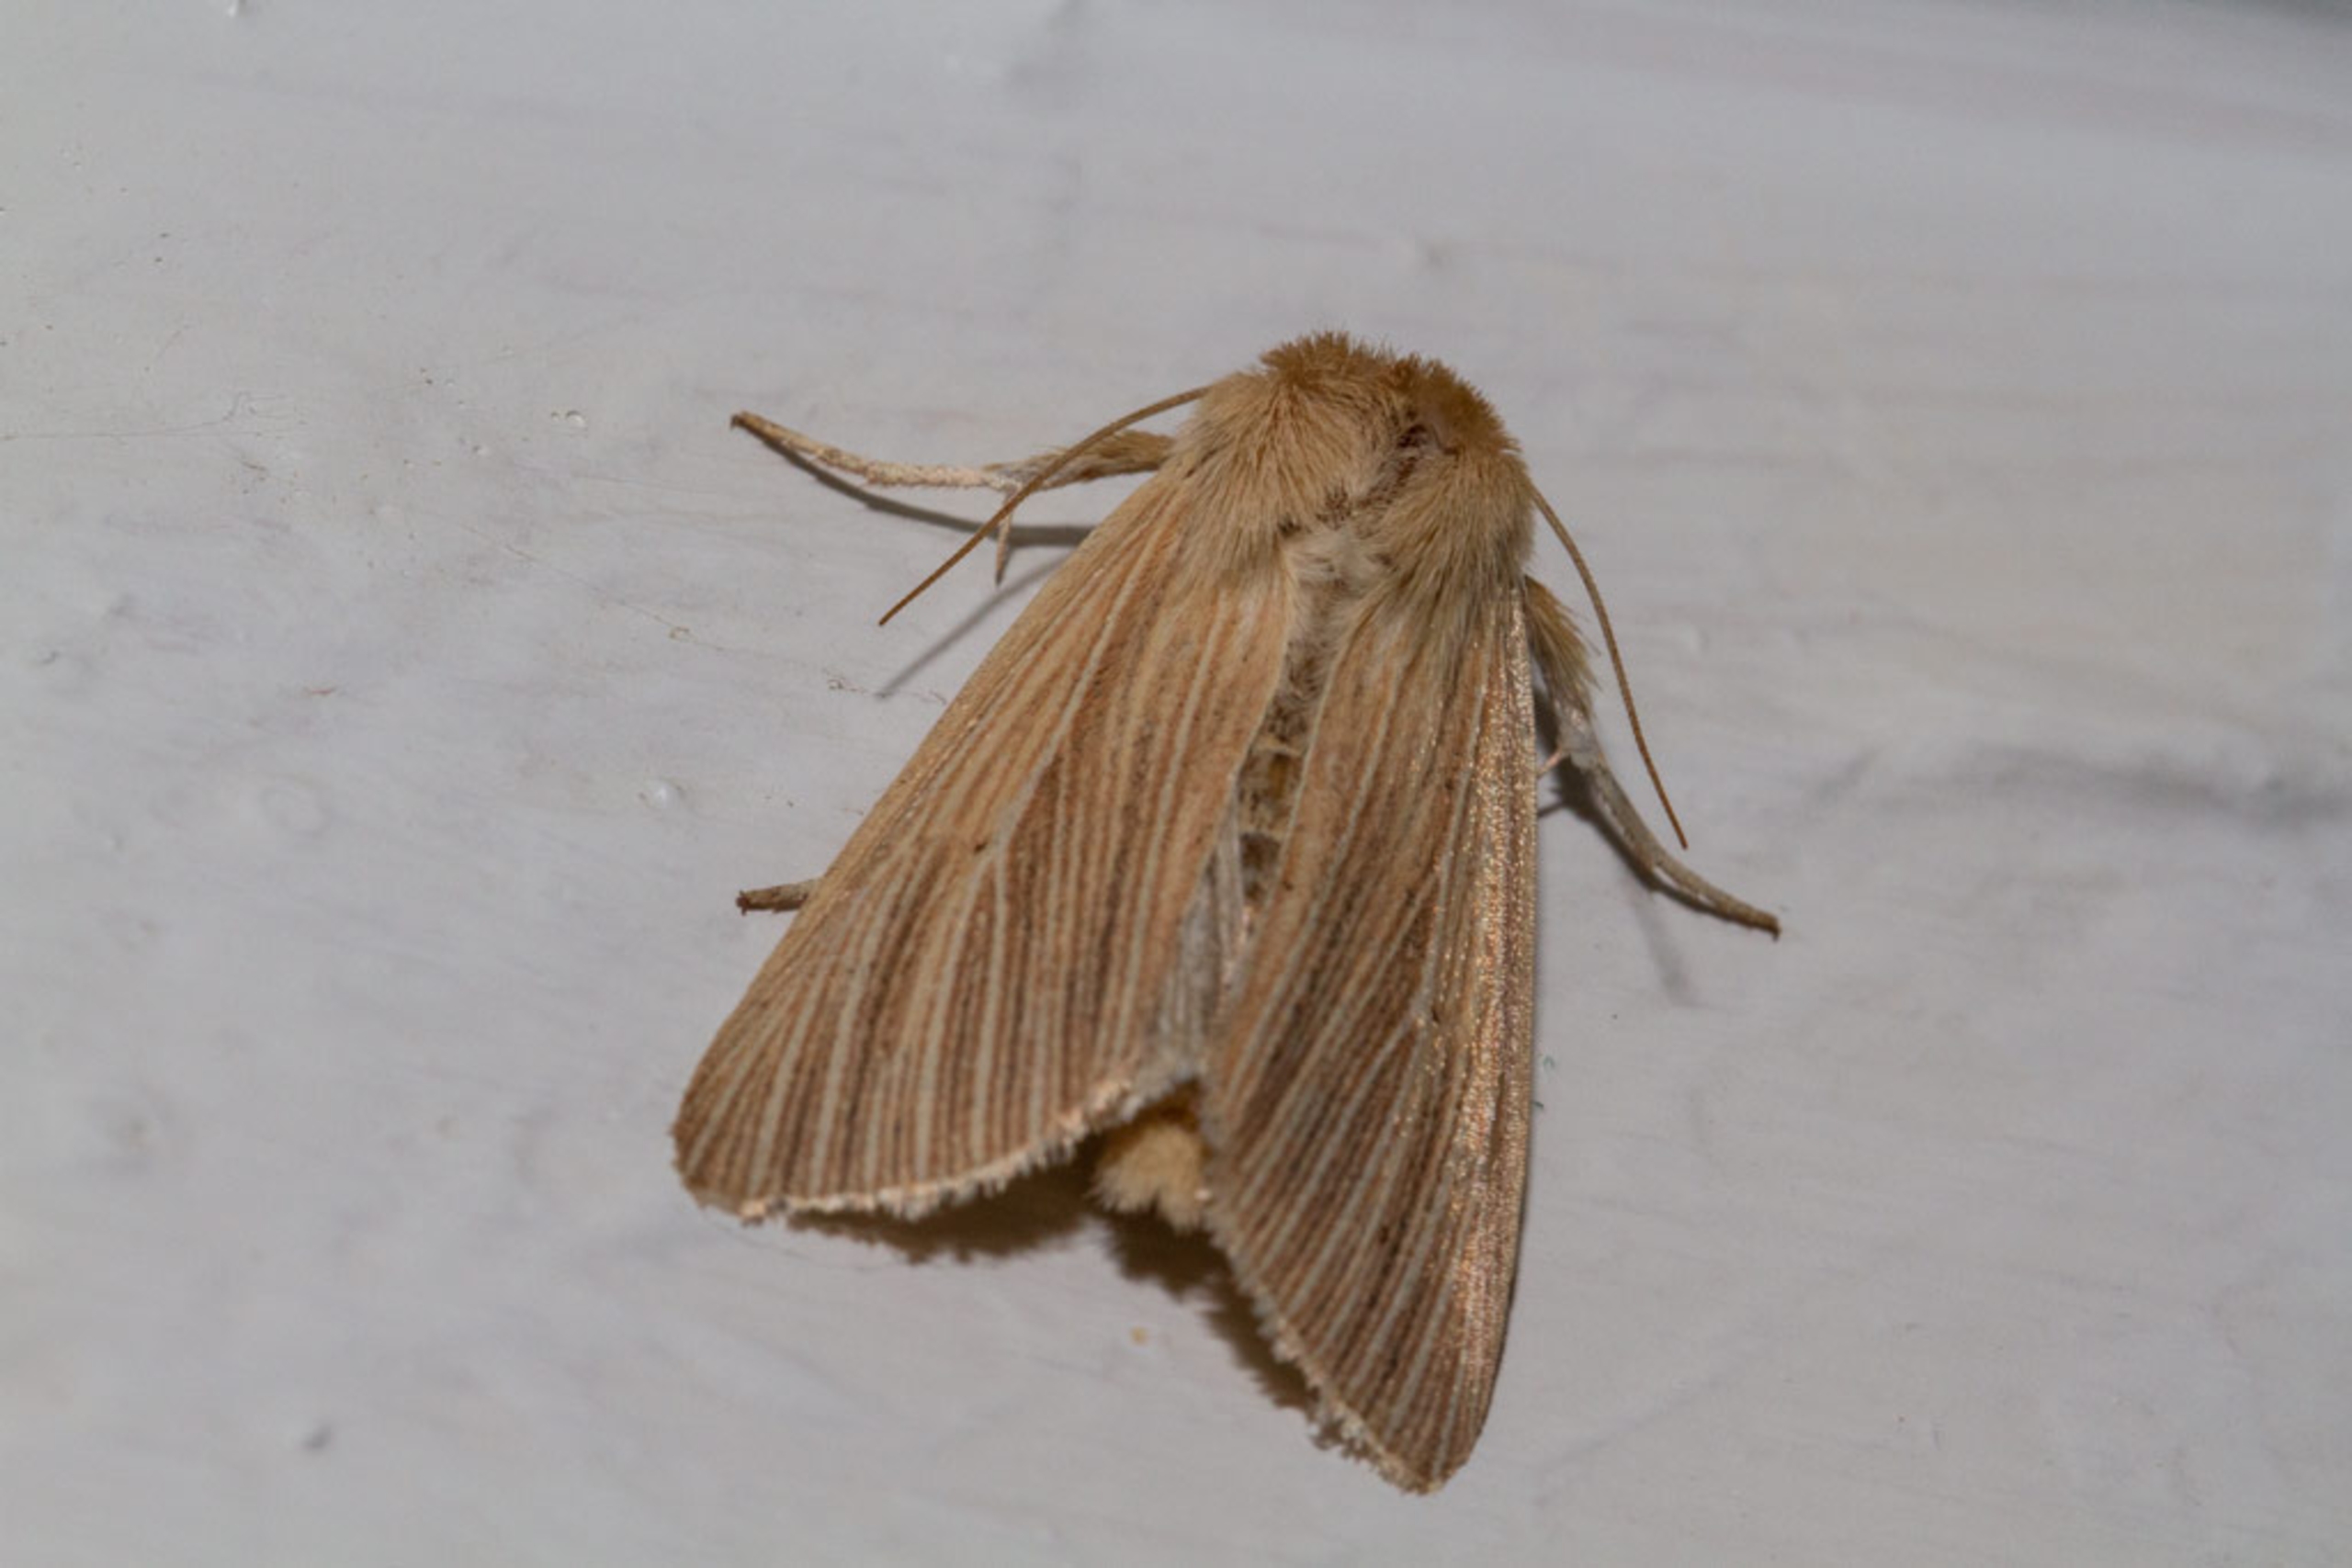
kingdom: Animalia
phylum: Arthropoda
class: Insecta
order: Lepidoptera
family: Noctuidae
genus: Mythimna
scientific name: Mythimna pallens
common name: Halmugle
